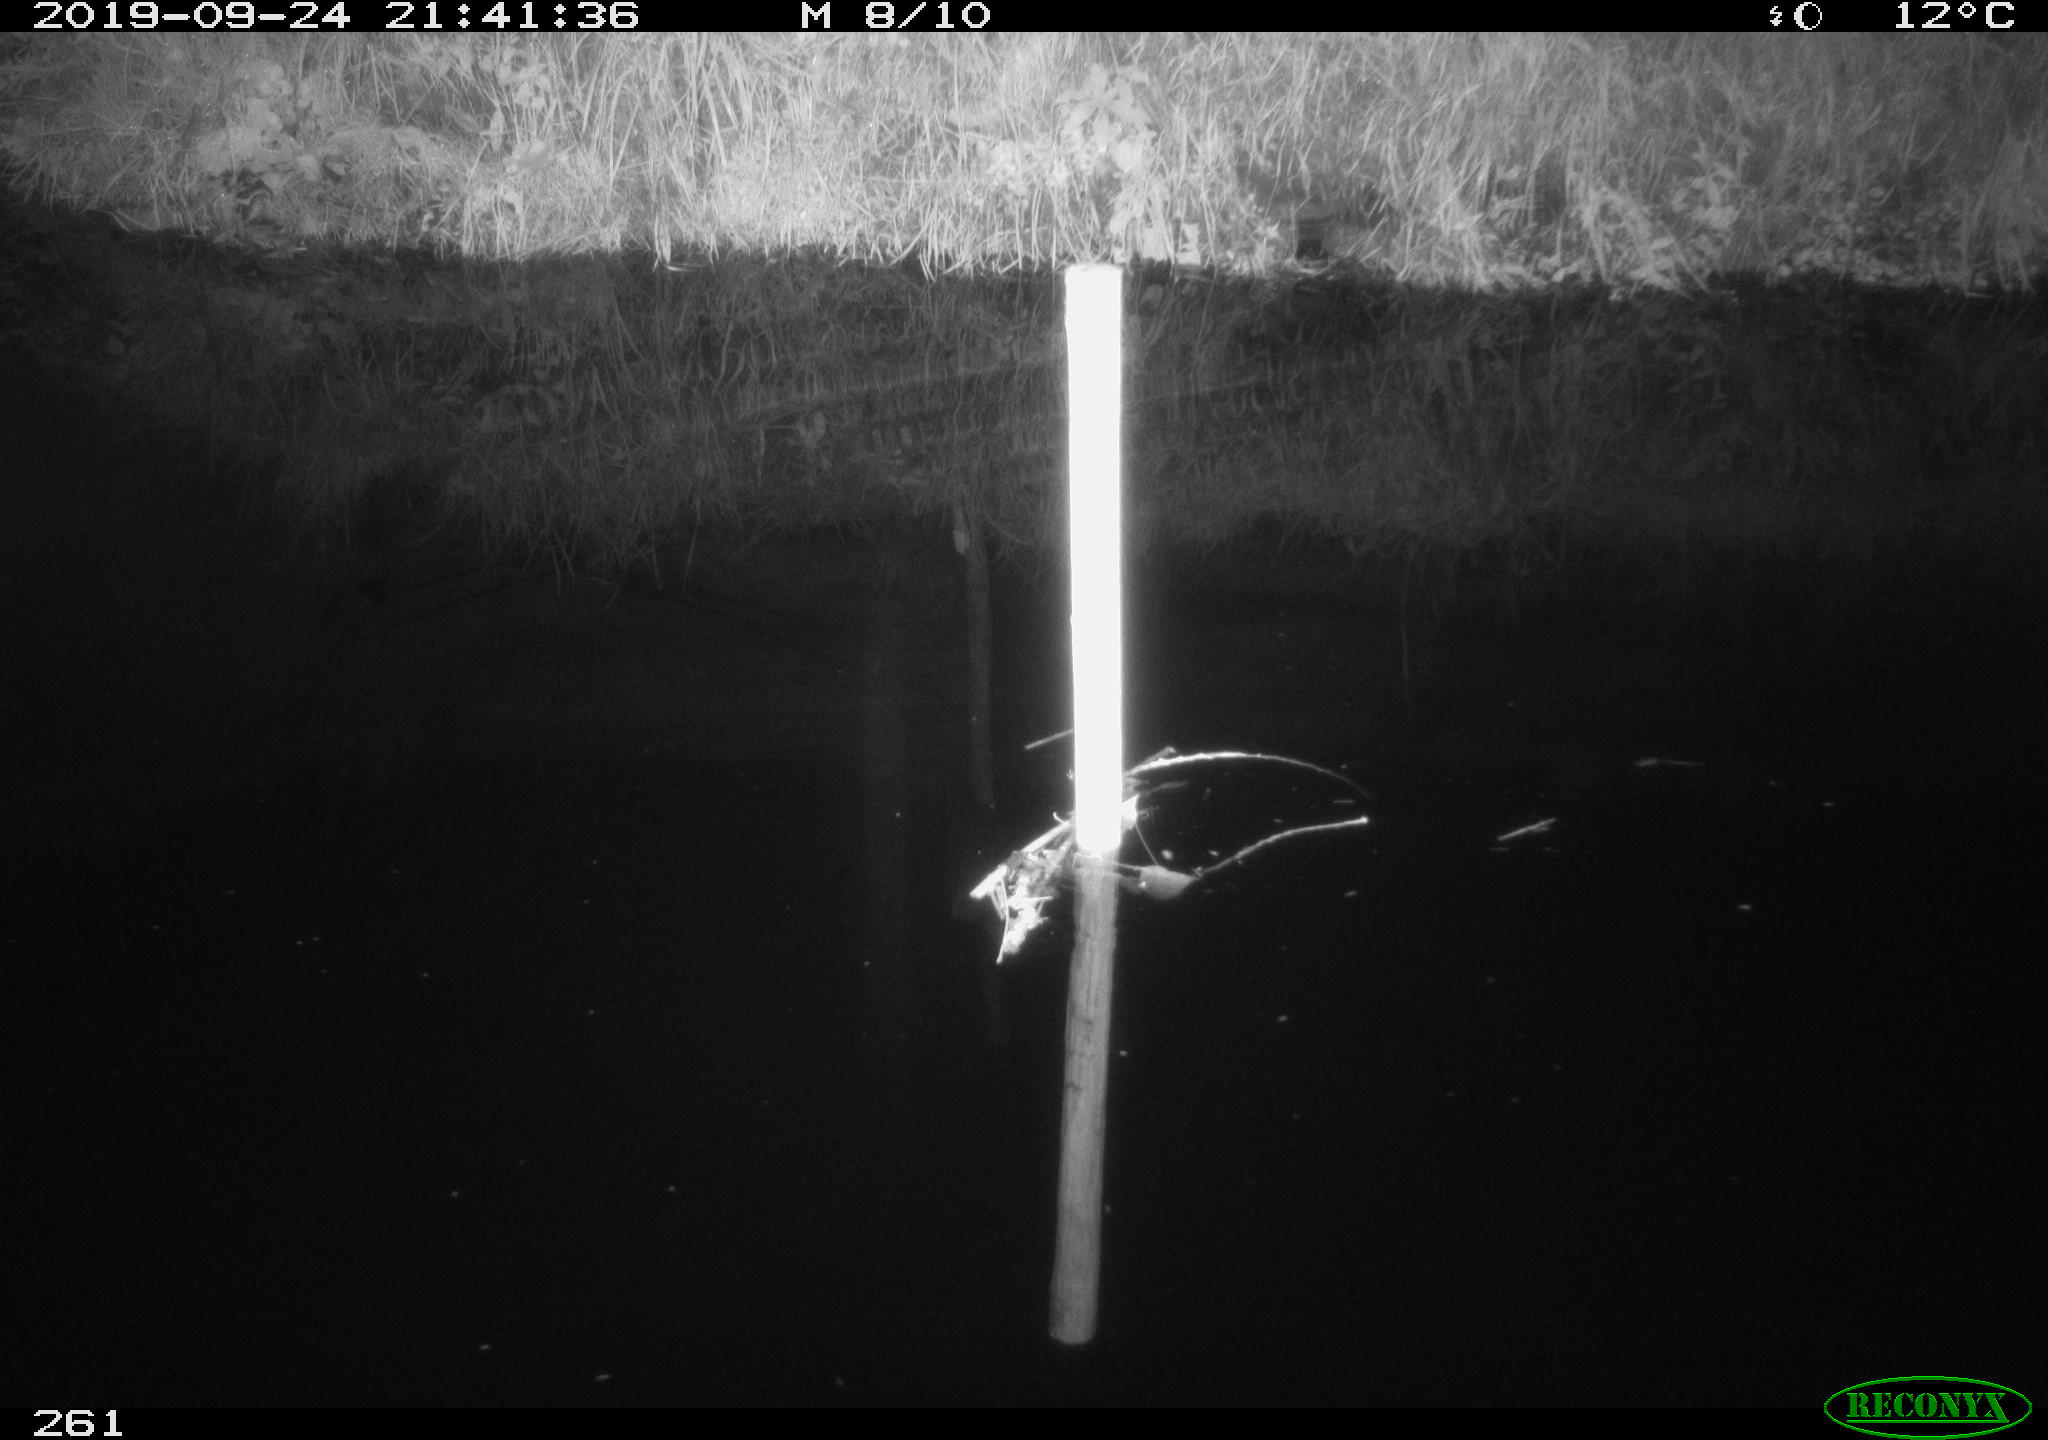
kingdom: Animalia
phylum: Chordata
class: Aves
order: Anseriformes
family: Anatidae
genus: Anas
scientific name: Anas platyrhynchos
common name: Mallard
